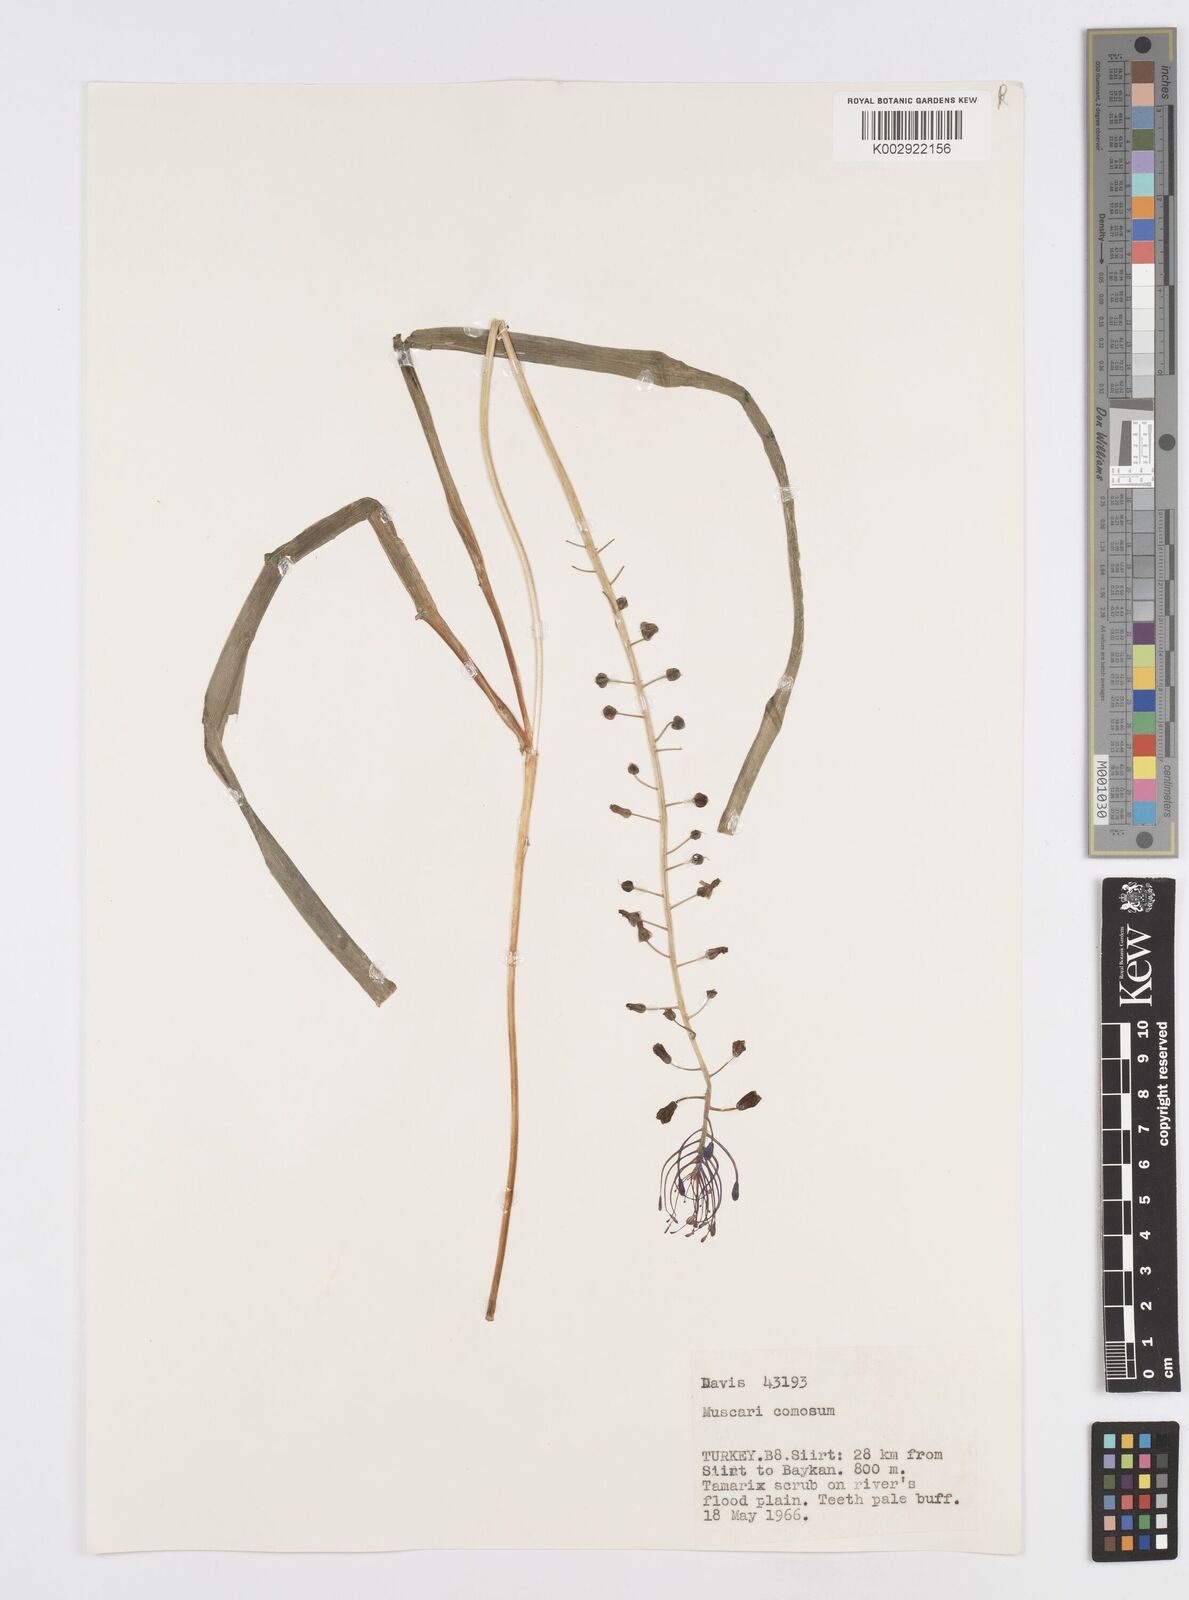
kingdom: Plantae
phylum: Tracheophyta
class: Liliopsida
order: Asparagales
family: Asparagaceae
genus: Muscari
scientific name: Muscari comosum
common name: Tassel hyacinth
